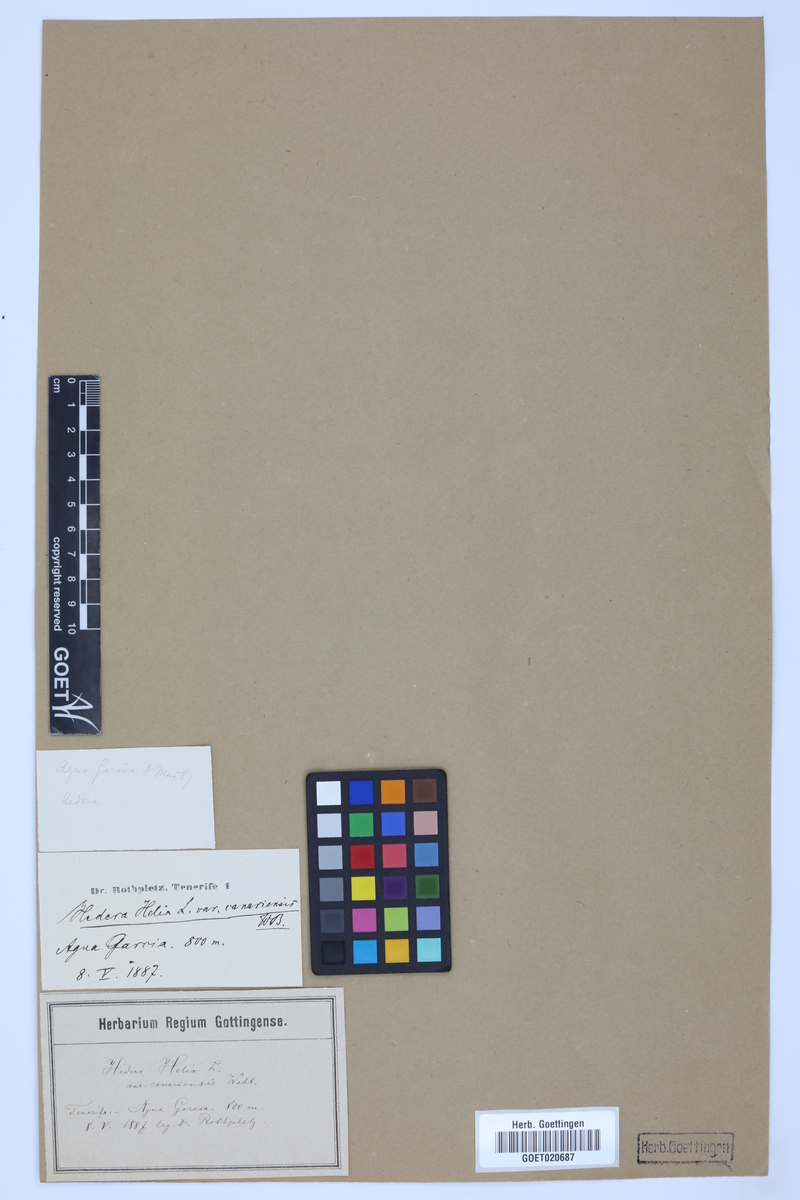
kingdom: Plantae
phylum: Tracheophyta
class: Magnoliopsida
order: Apiales
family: Araliaceae
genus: Hedera
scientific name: Hedera canariensis
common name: Madeira ivy
